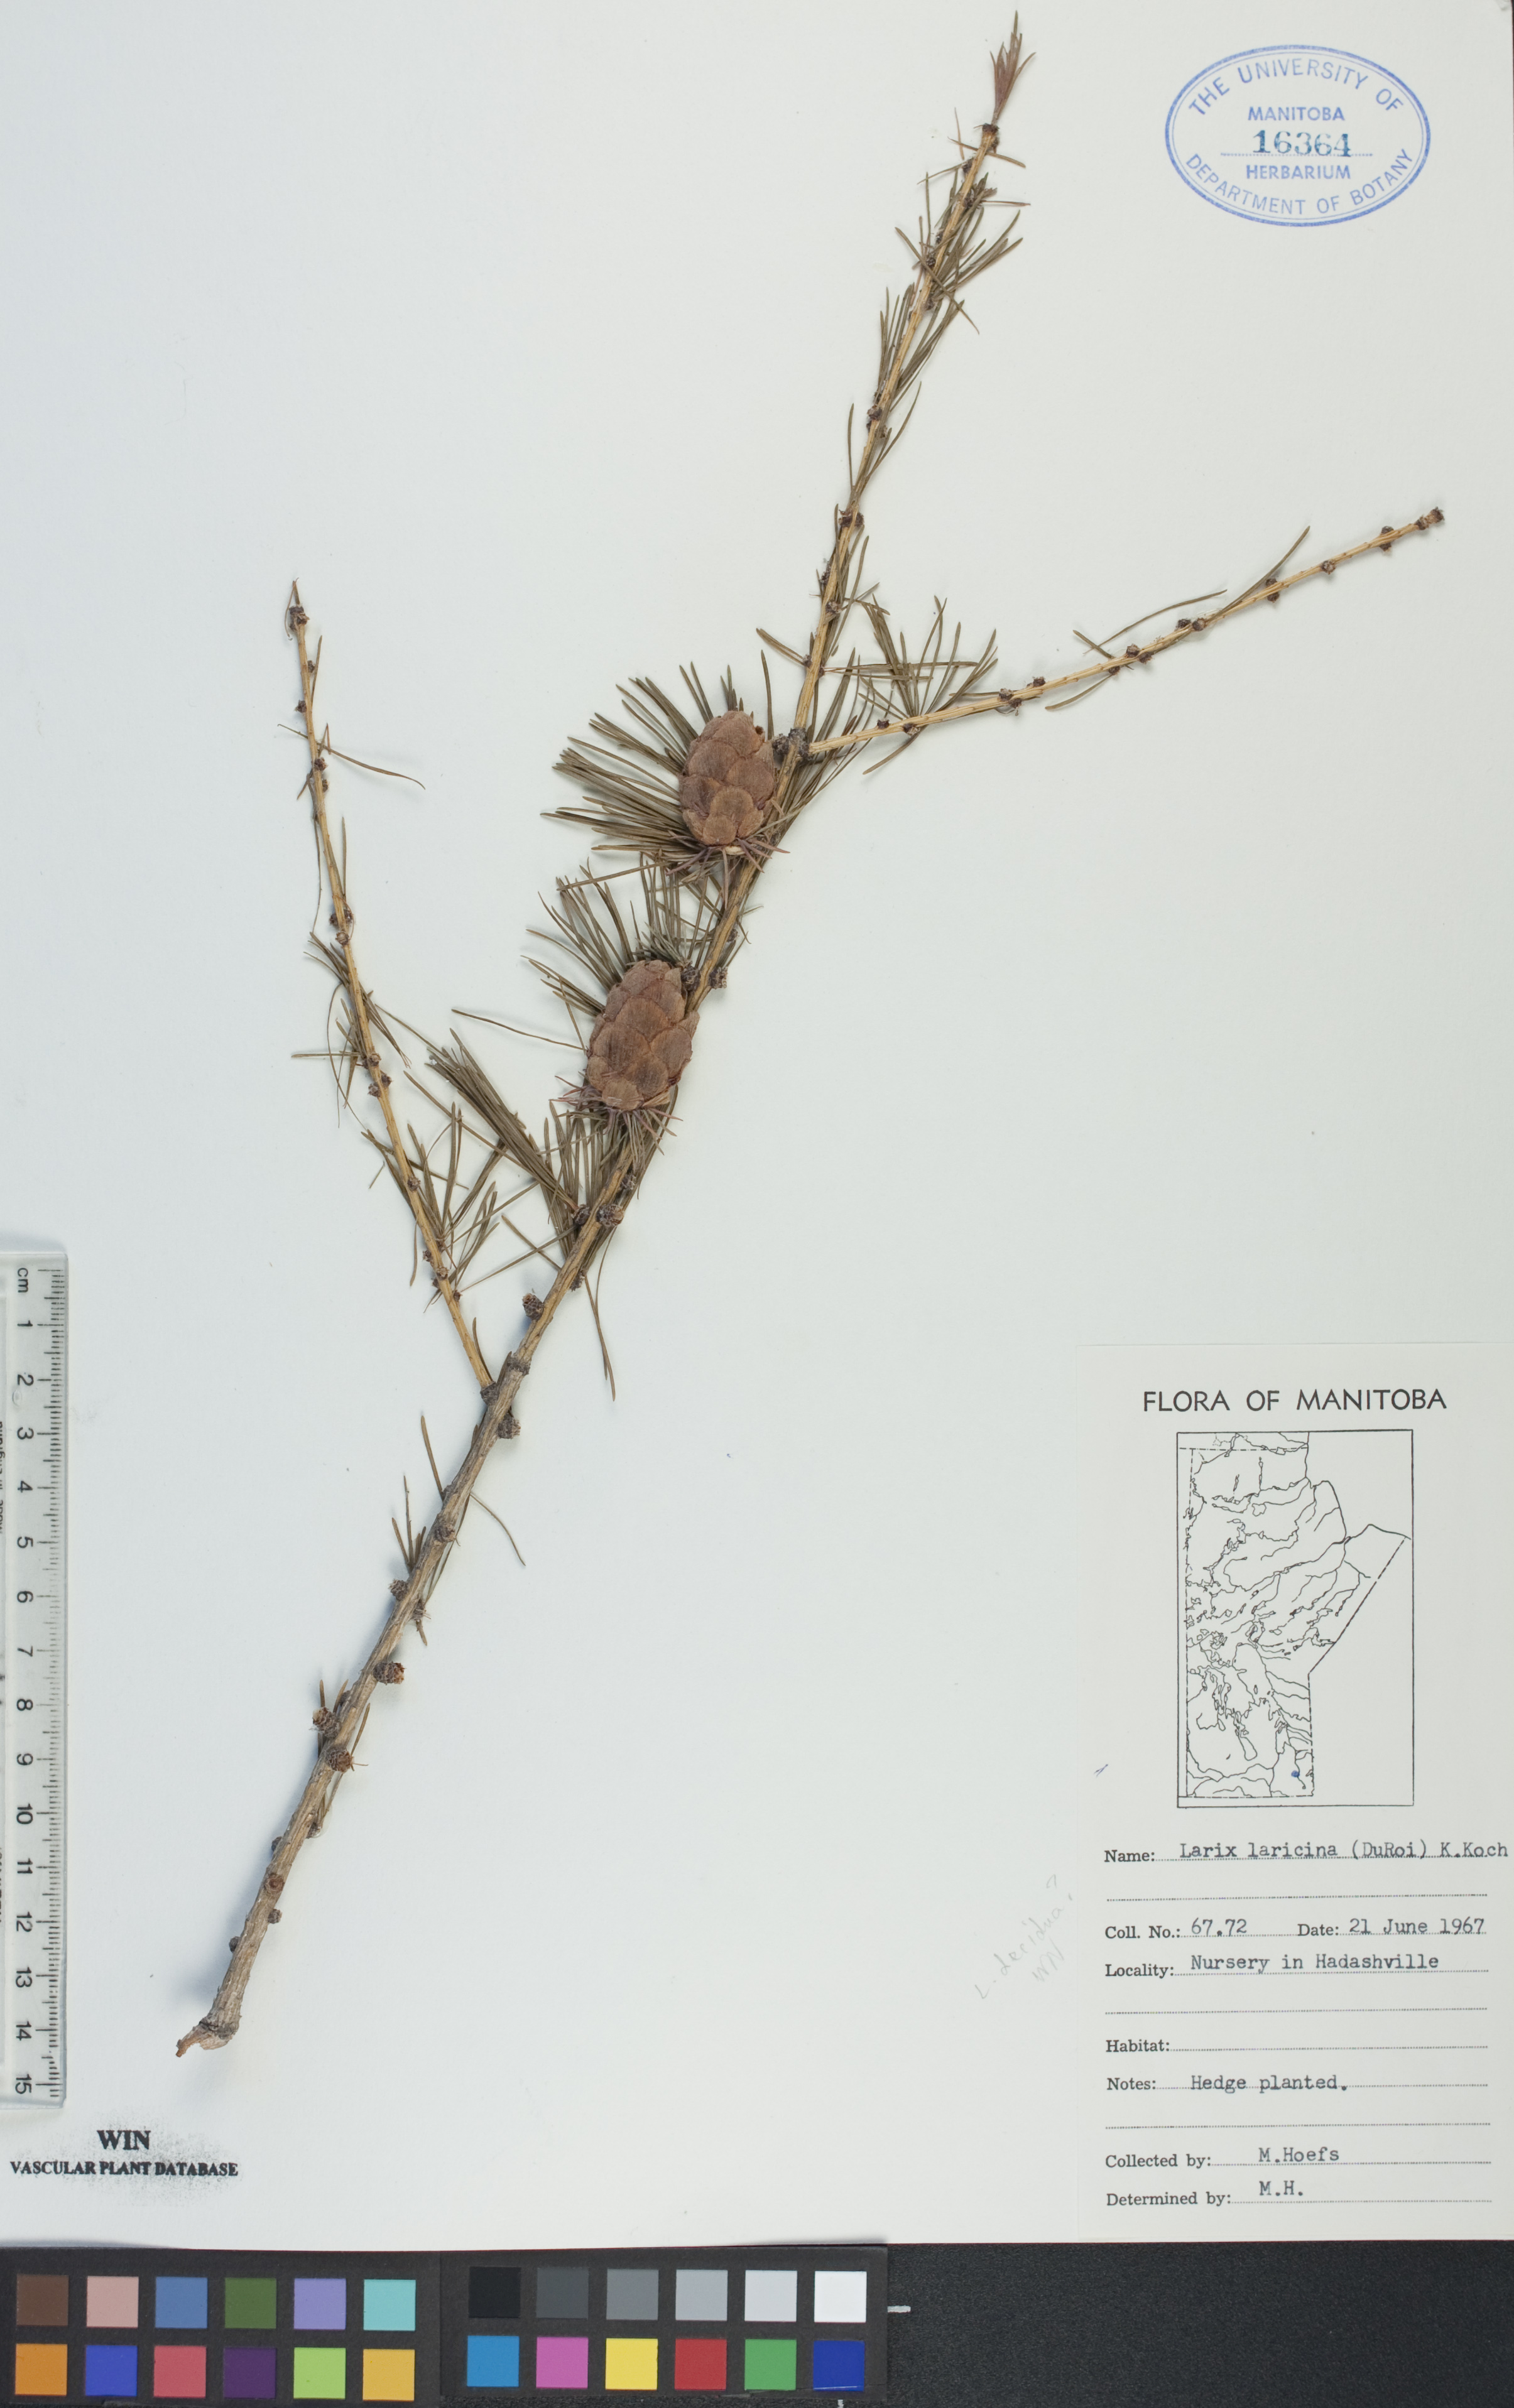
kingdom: Plantae
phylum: Tracheophyta
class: Pinopsida
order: Pinales
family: Pinaceae
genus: Larix
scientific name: Larix laricina
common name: American larch
